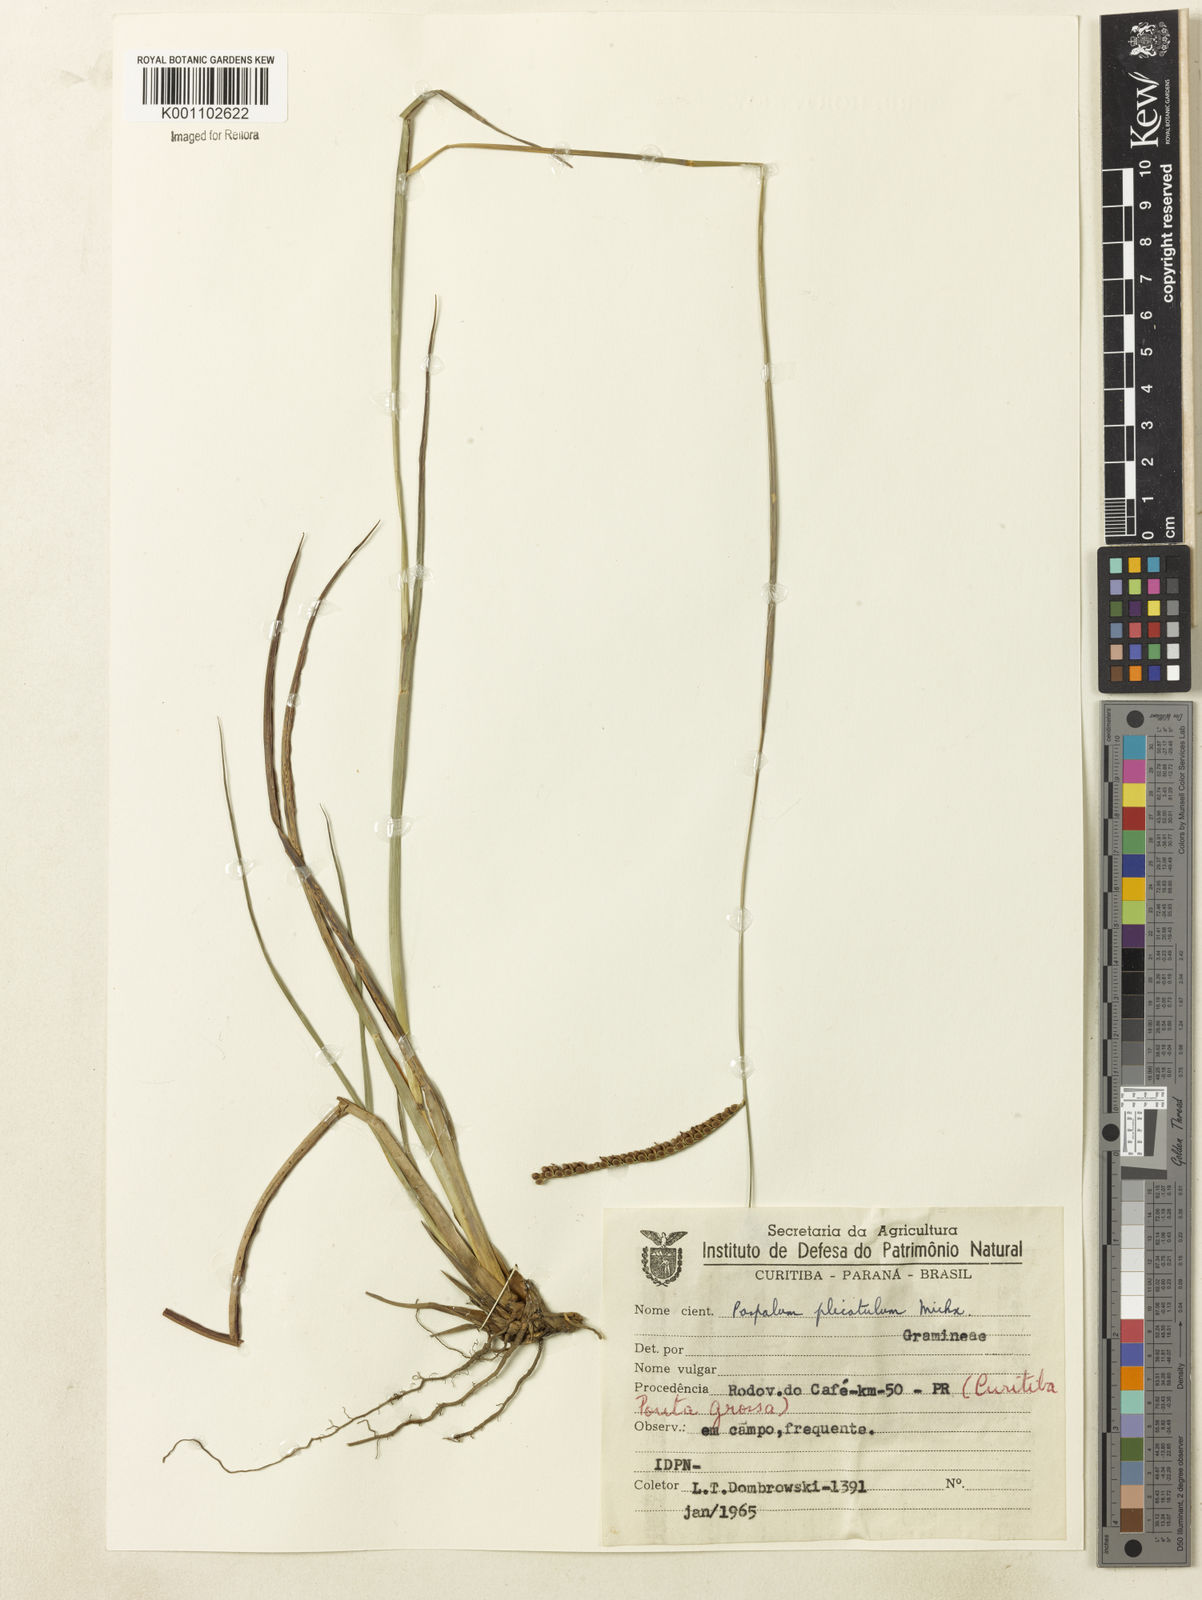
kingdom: Plantae
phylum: Tracheophyta
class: Liliopsida
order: Poales
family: Poaceae
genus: Paspalum
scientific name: Paspalum
